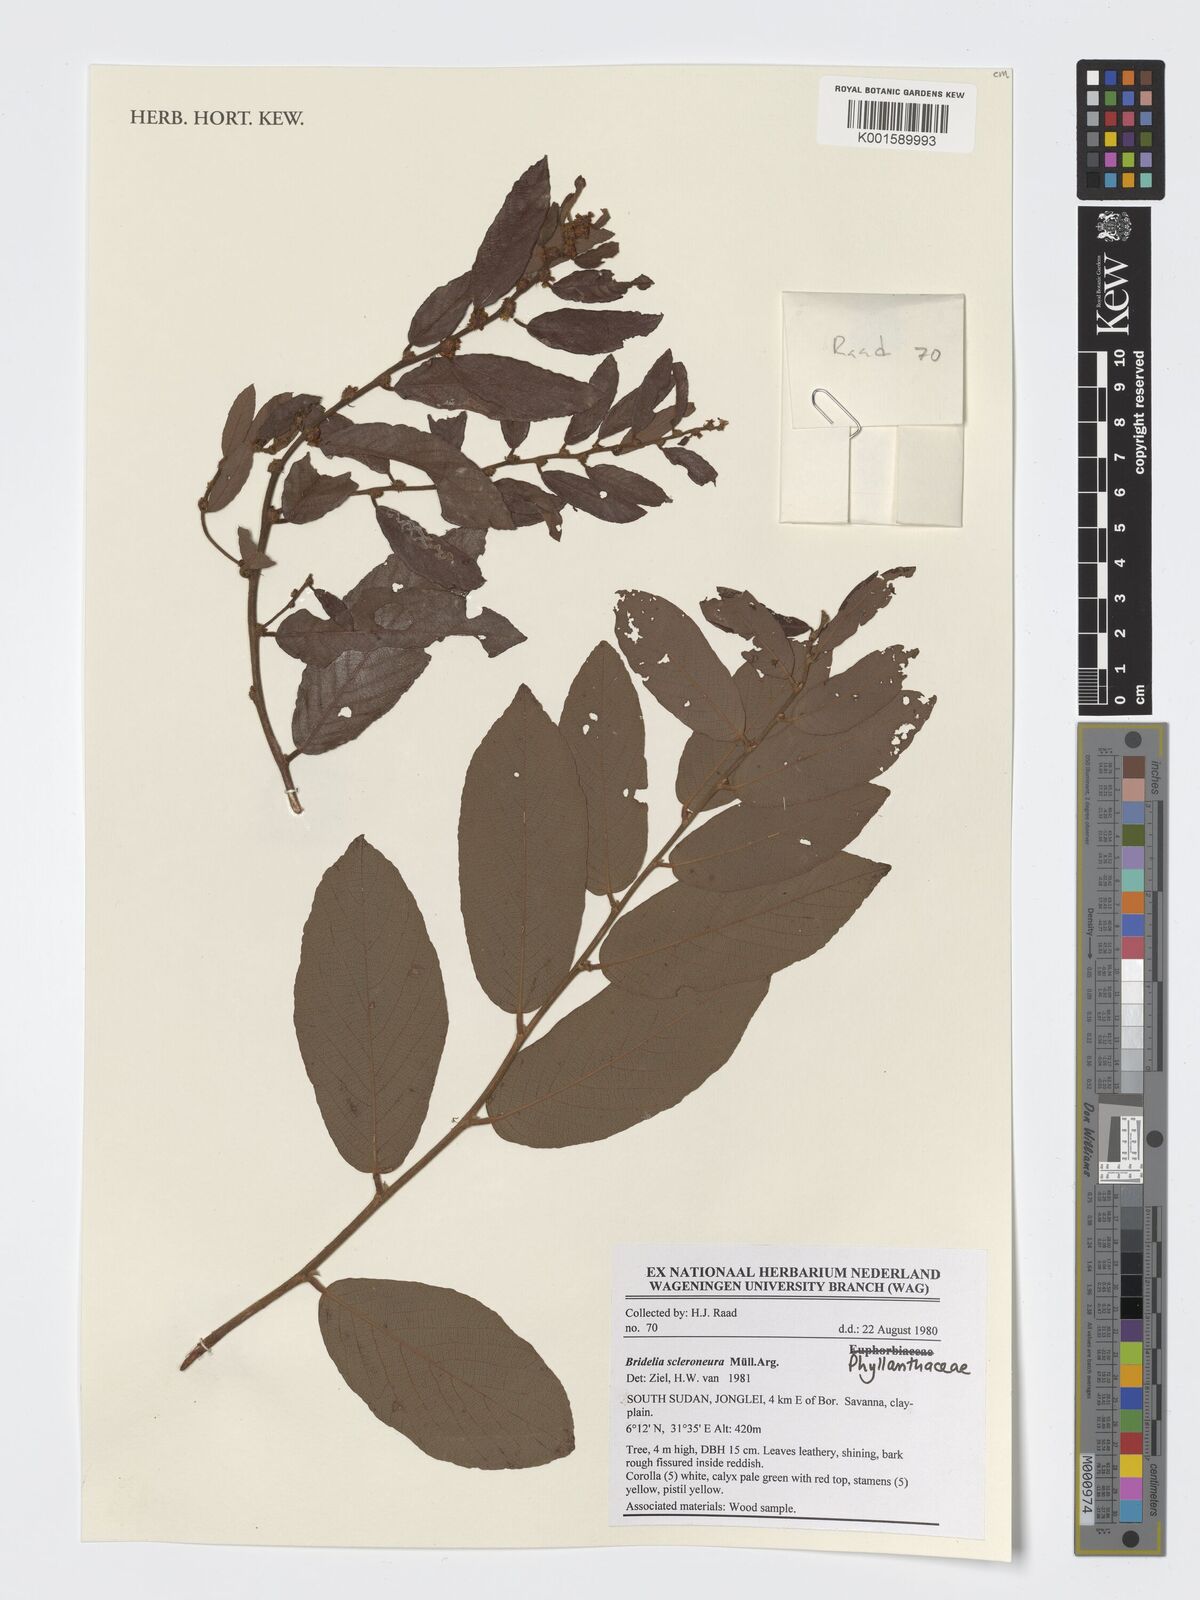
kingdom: Plantae
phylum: Tracheophyta
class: Magnoliopsida
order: Malpighiales
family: Phyllanthaceae
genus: Bridelia
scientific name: Bridelia scleroneura
